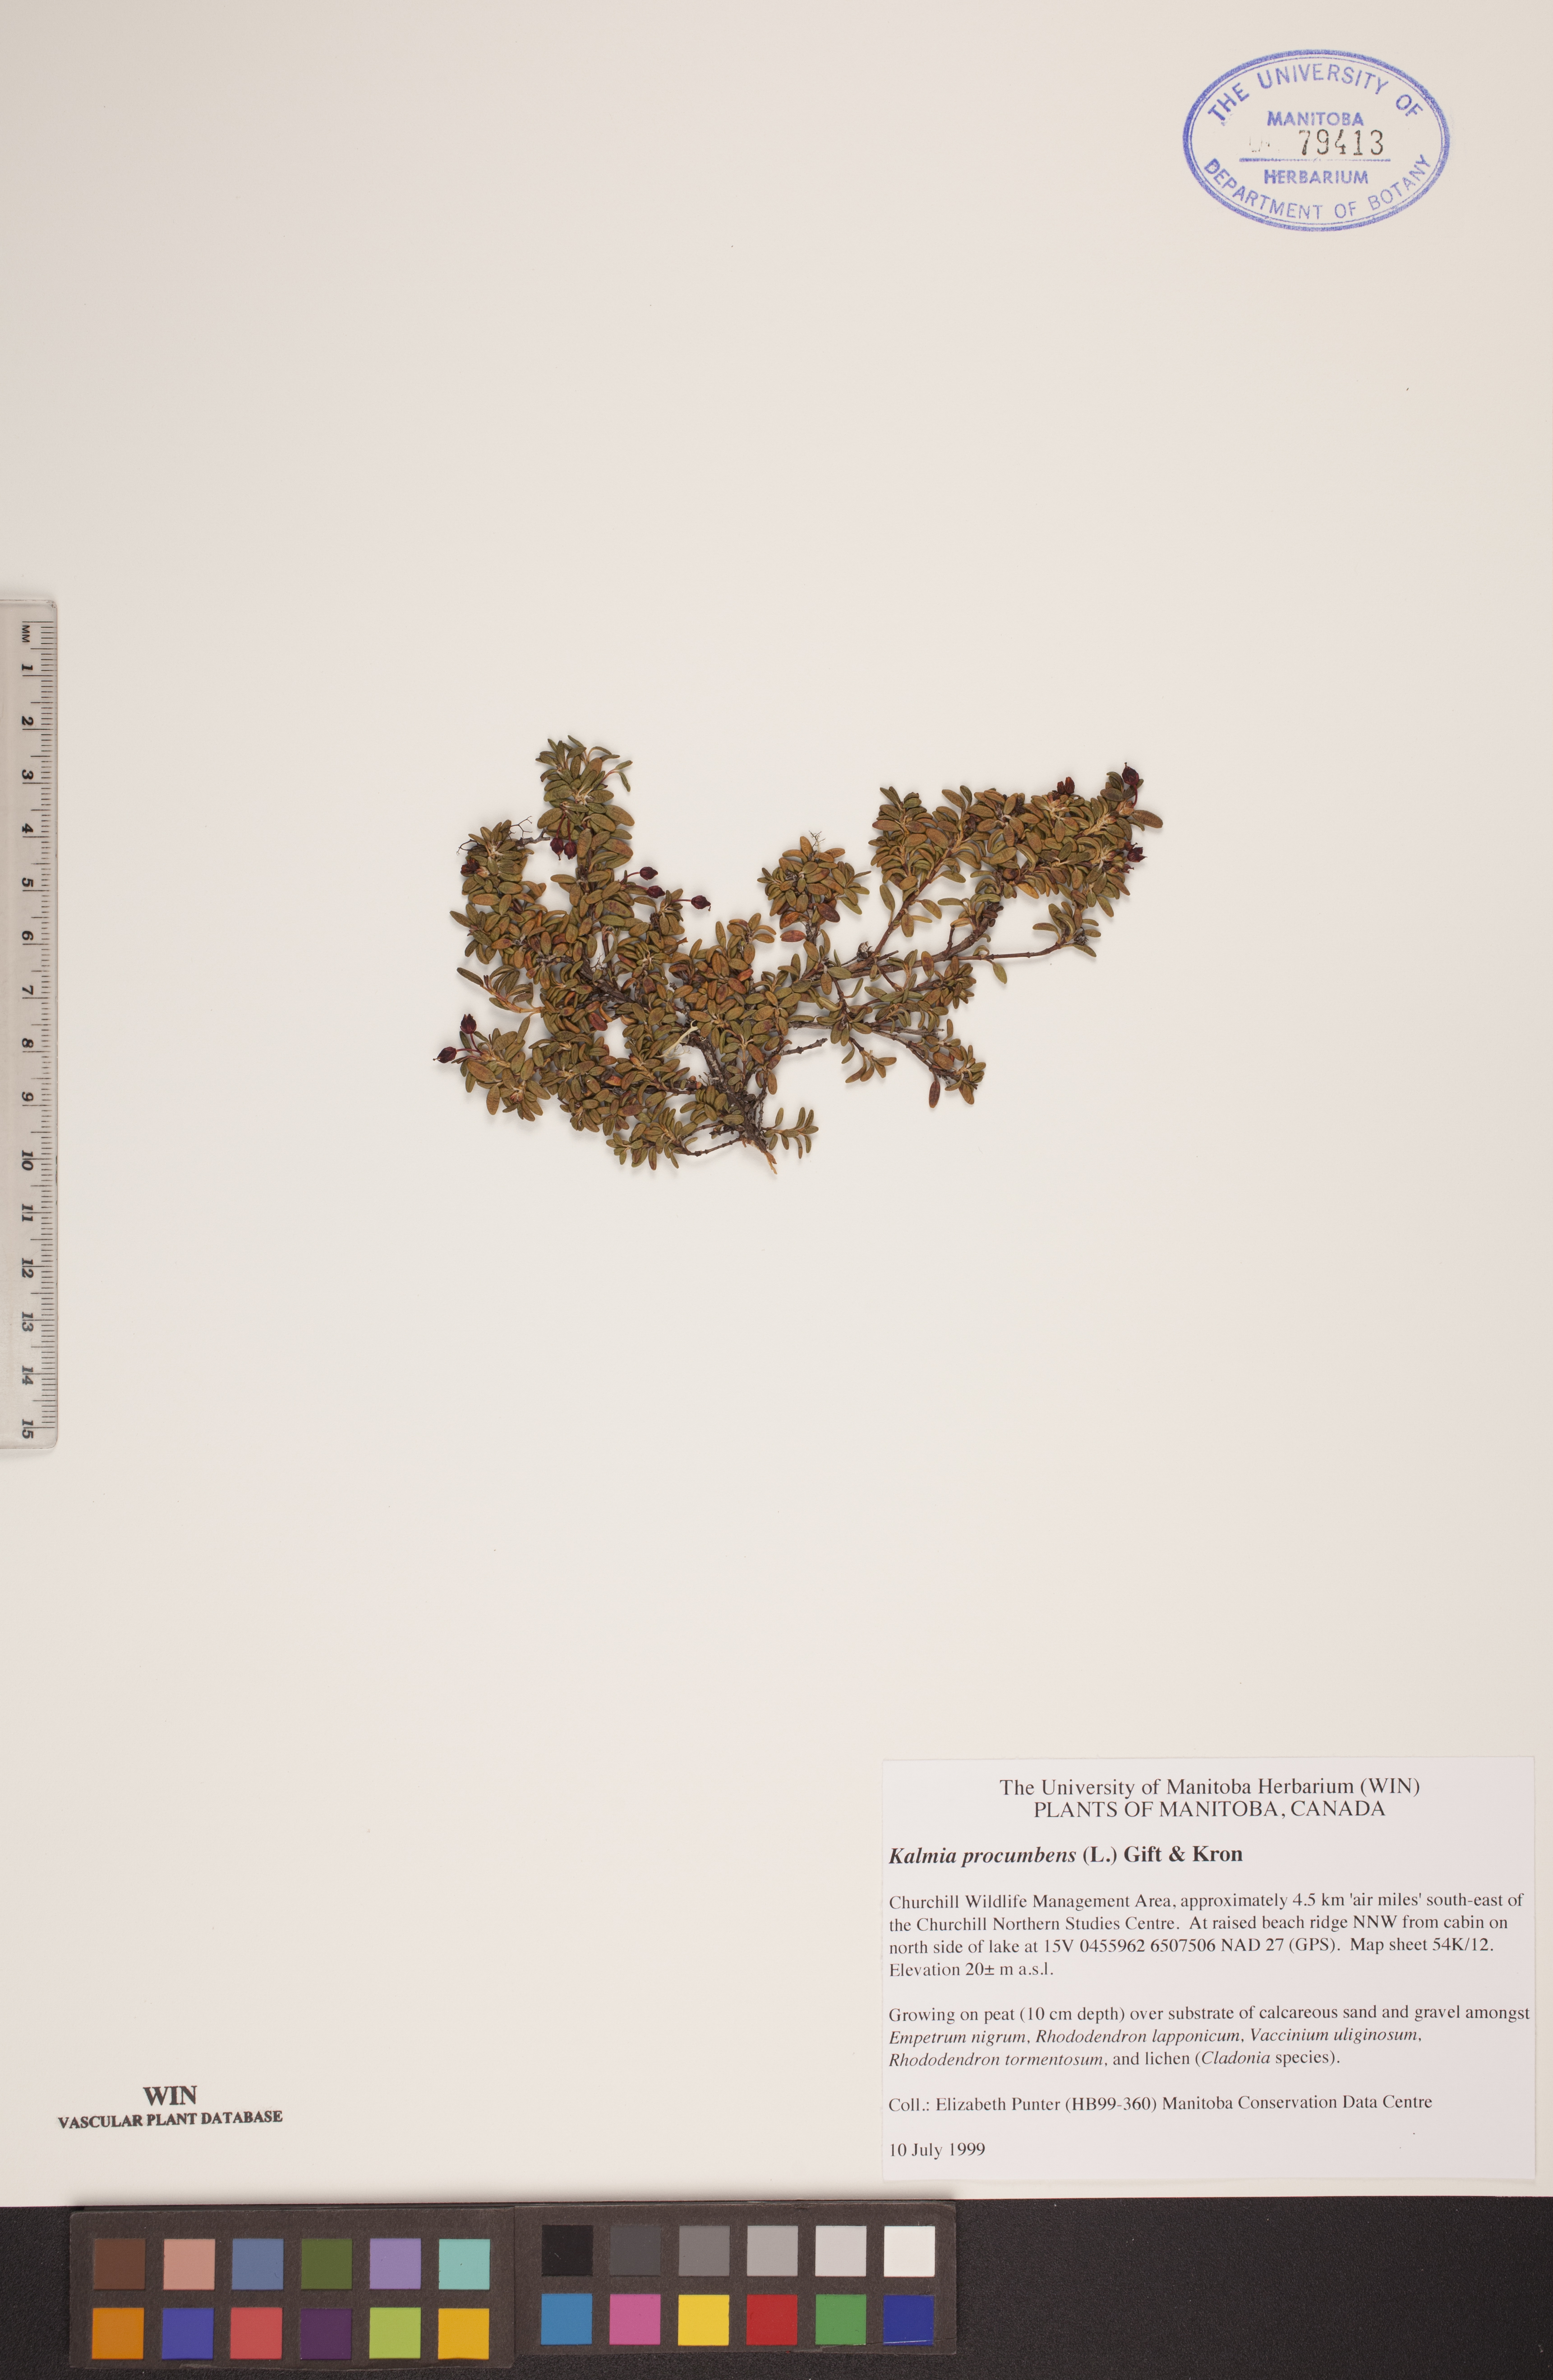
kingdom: Plantae
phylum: Tracheophyta
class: Magnoliopsida
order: Ericales
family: Ericaceae
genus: Kalmia
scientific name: Kalmia procumbens
